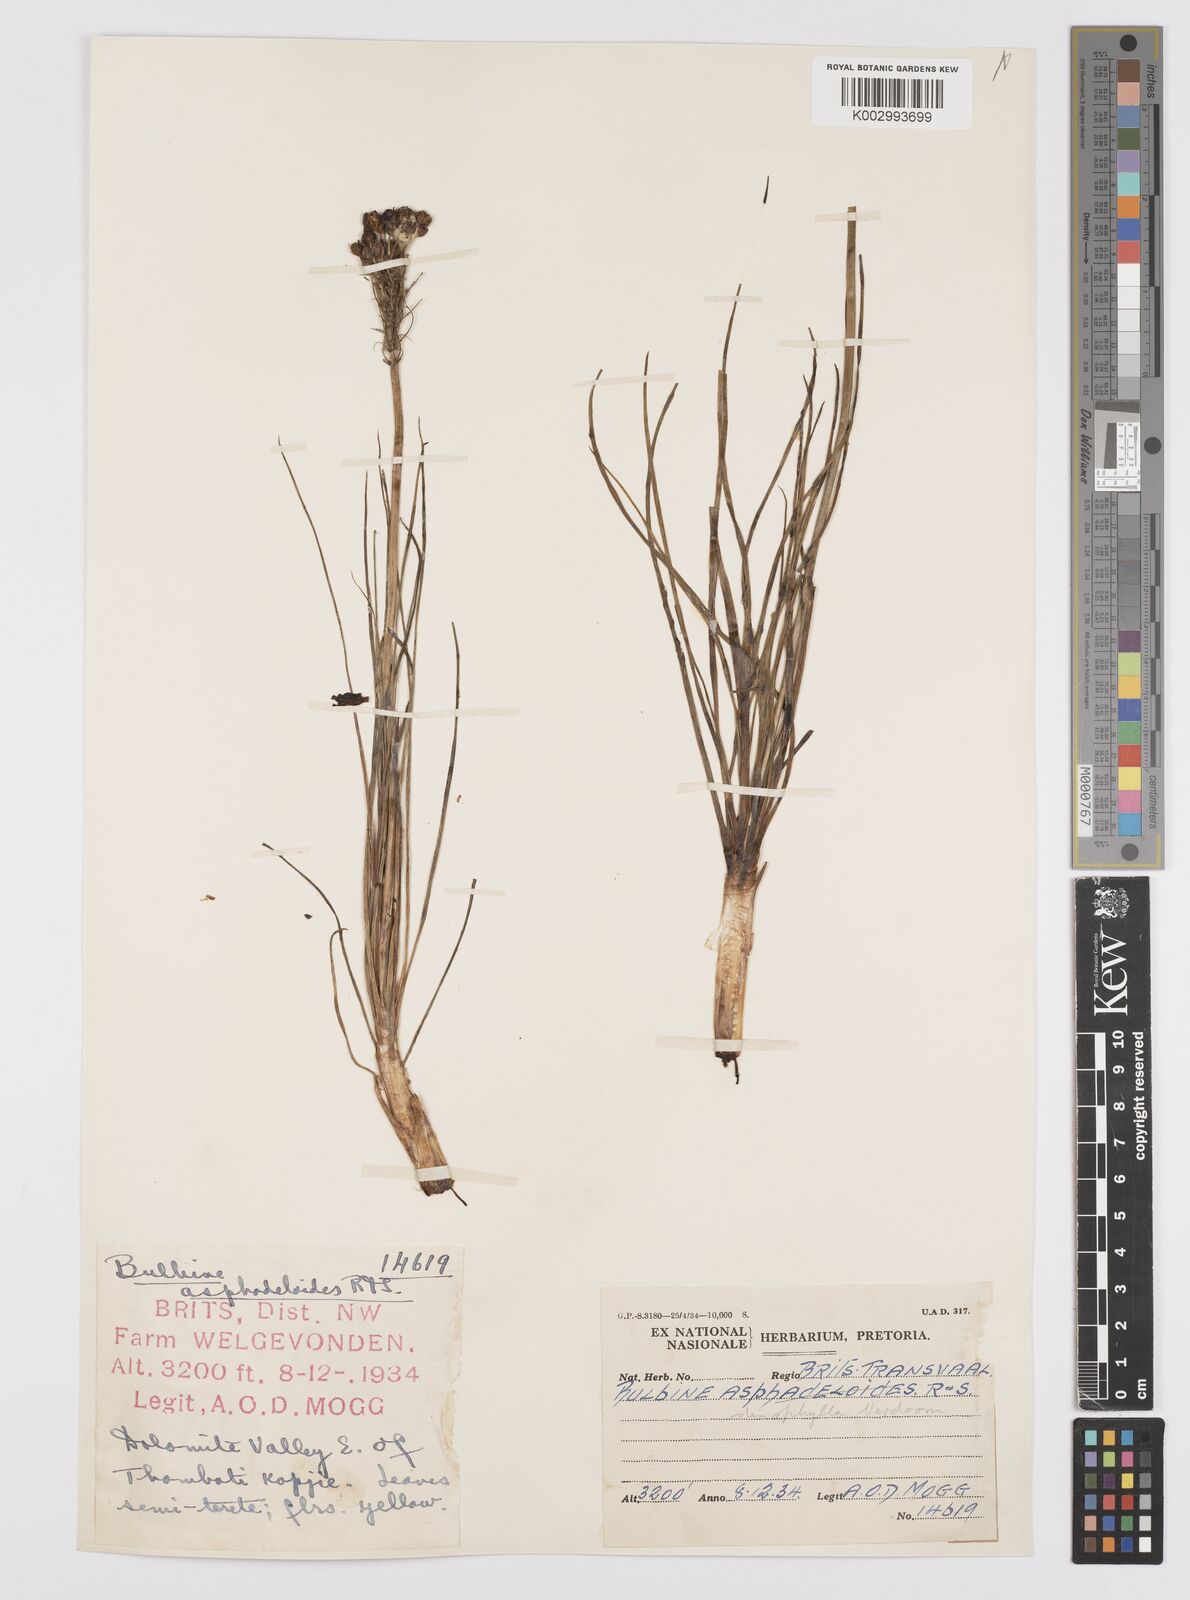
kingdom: Plantae
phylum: Tracheophyta
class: Liliopsida
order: Asparagales
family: Asphodelaceae
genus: Bulbine
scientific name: Bulbine capitata
